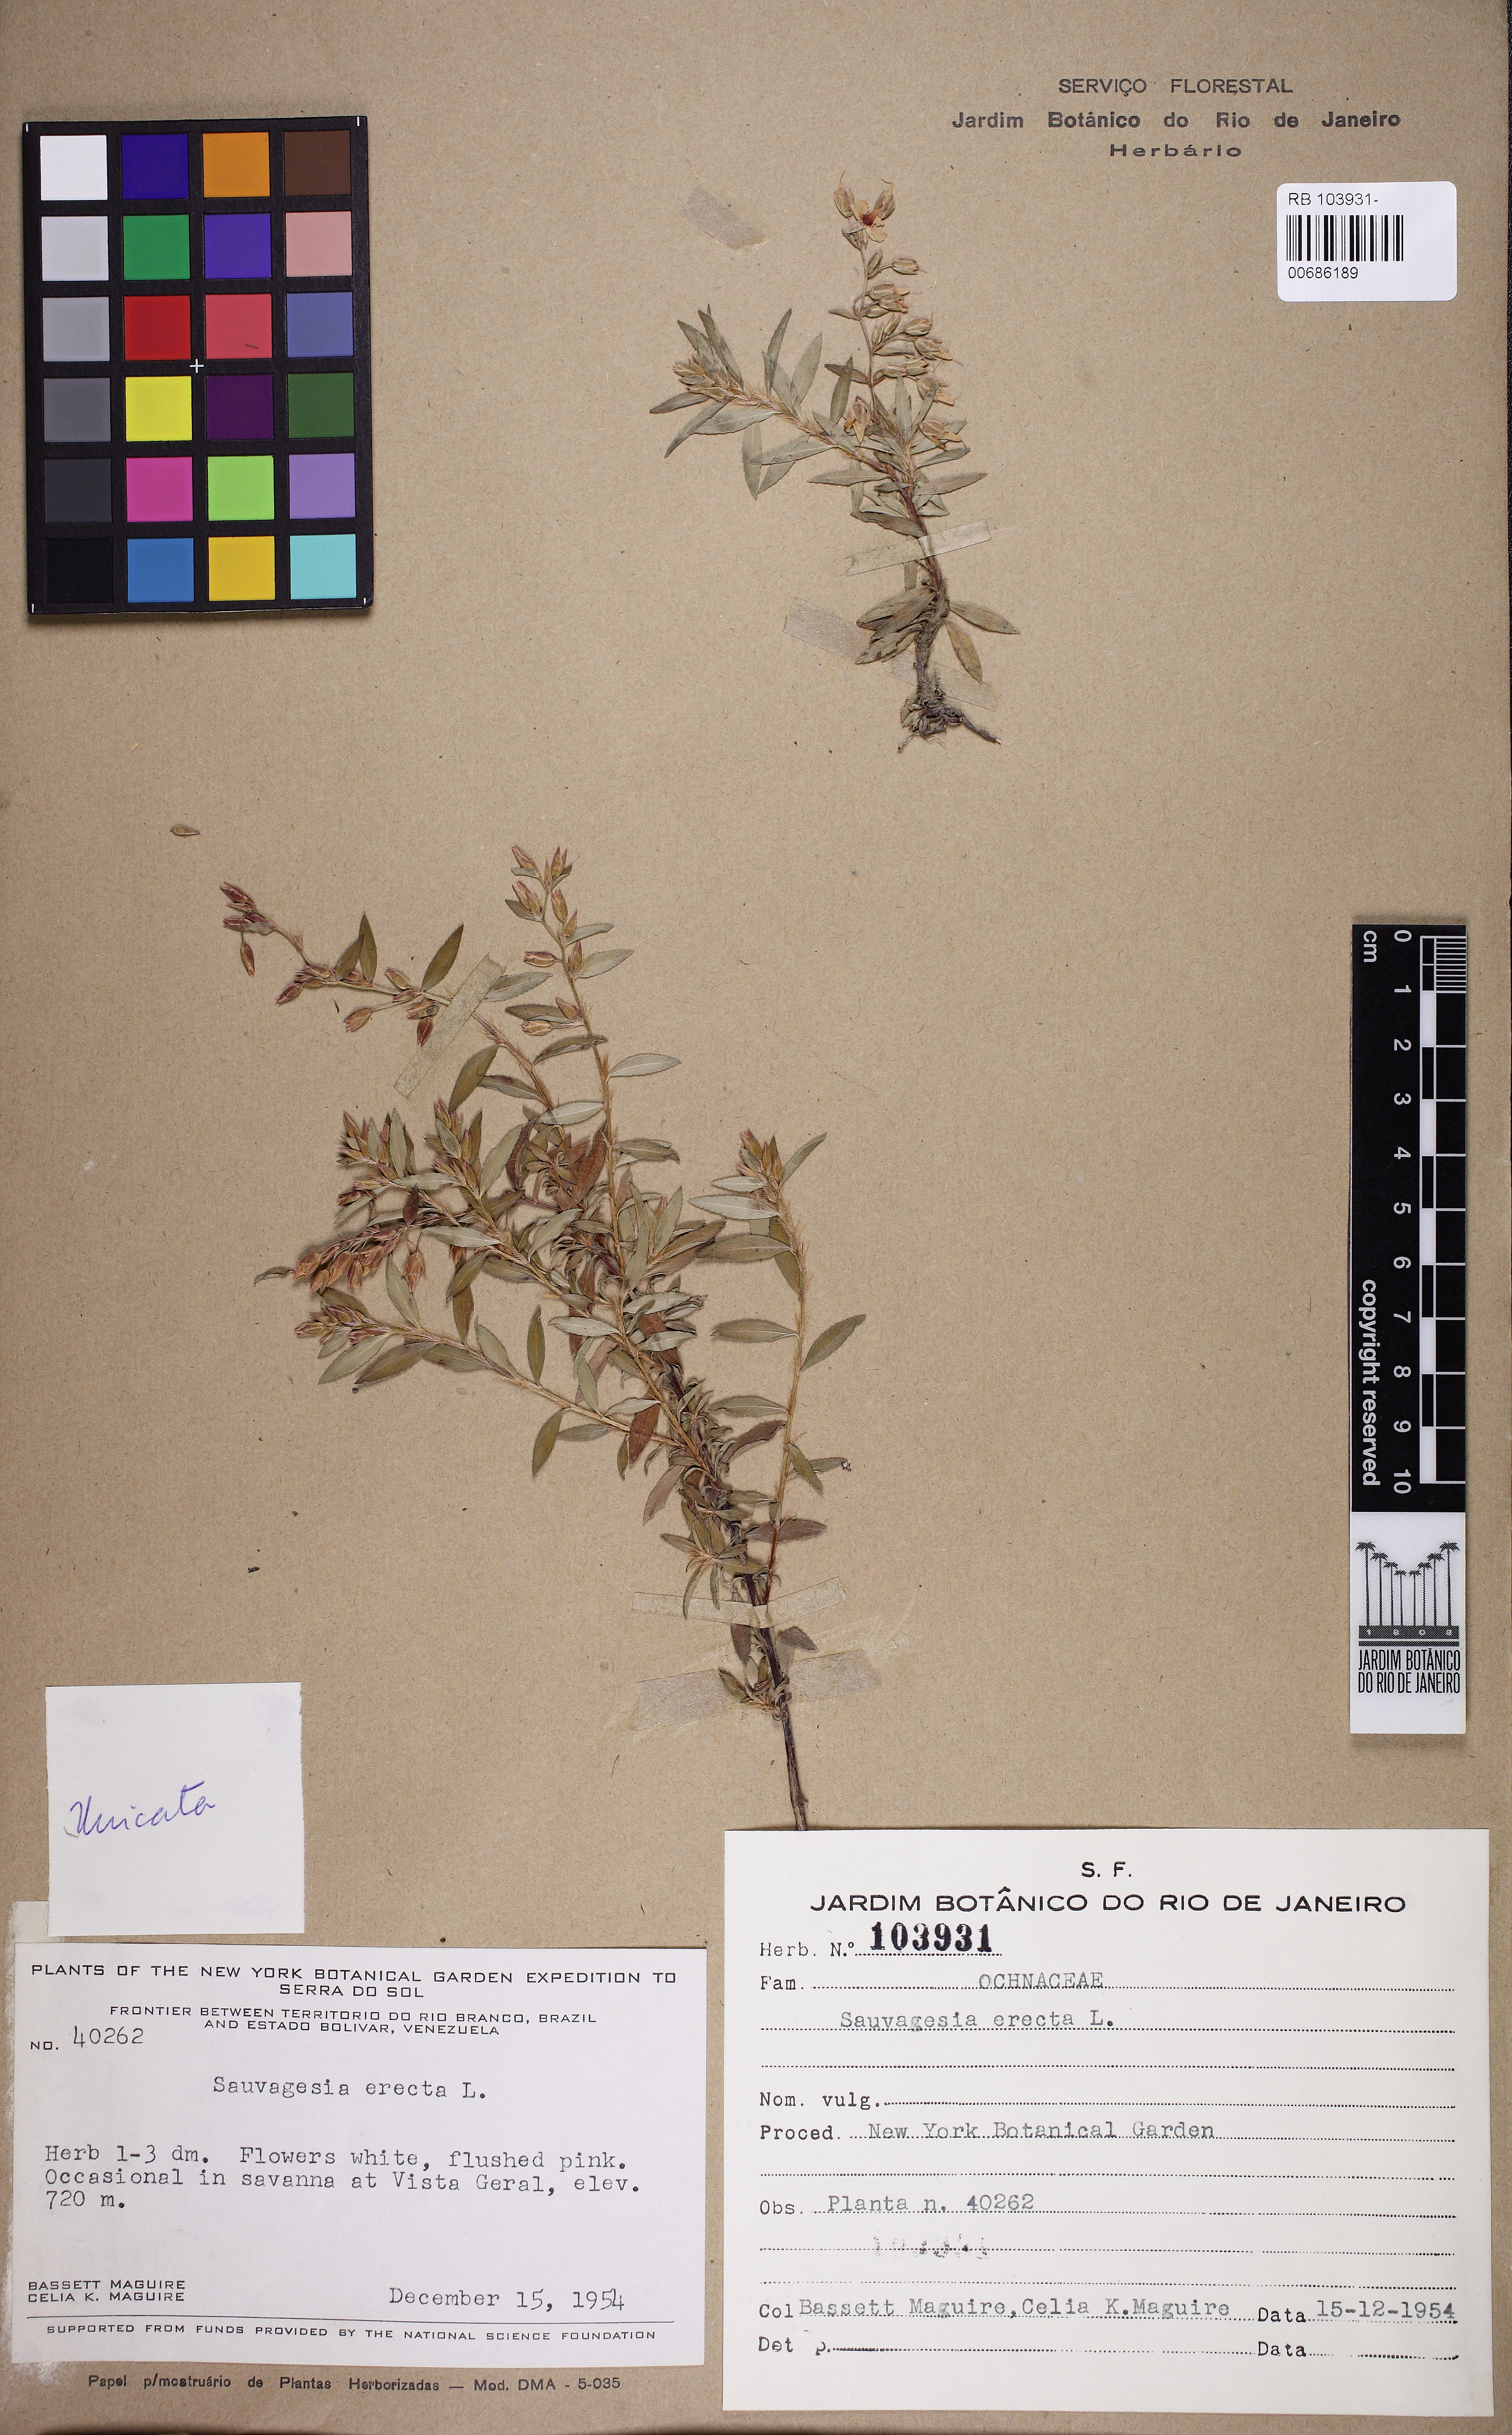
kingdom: Plantae
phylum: Tracheophyta
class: Magnoliopsida
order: Malpighiales
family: Ochnaceae
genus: Sauvagesia
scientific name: Sauvagesia erecta
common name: Creole tea
